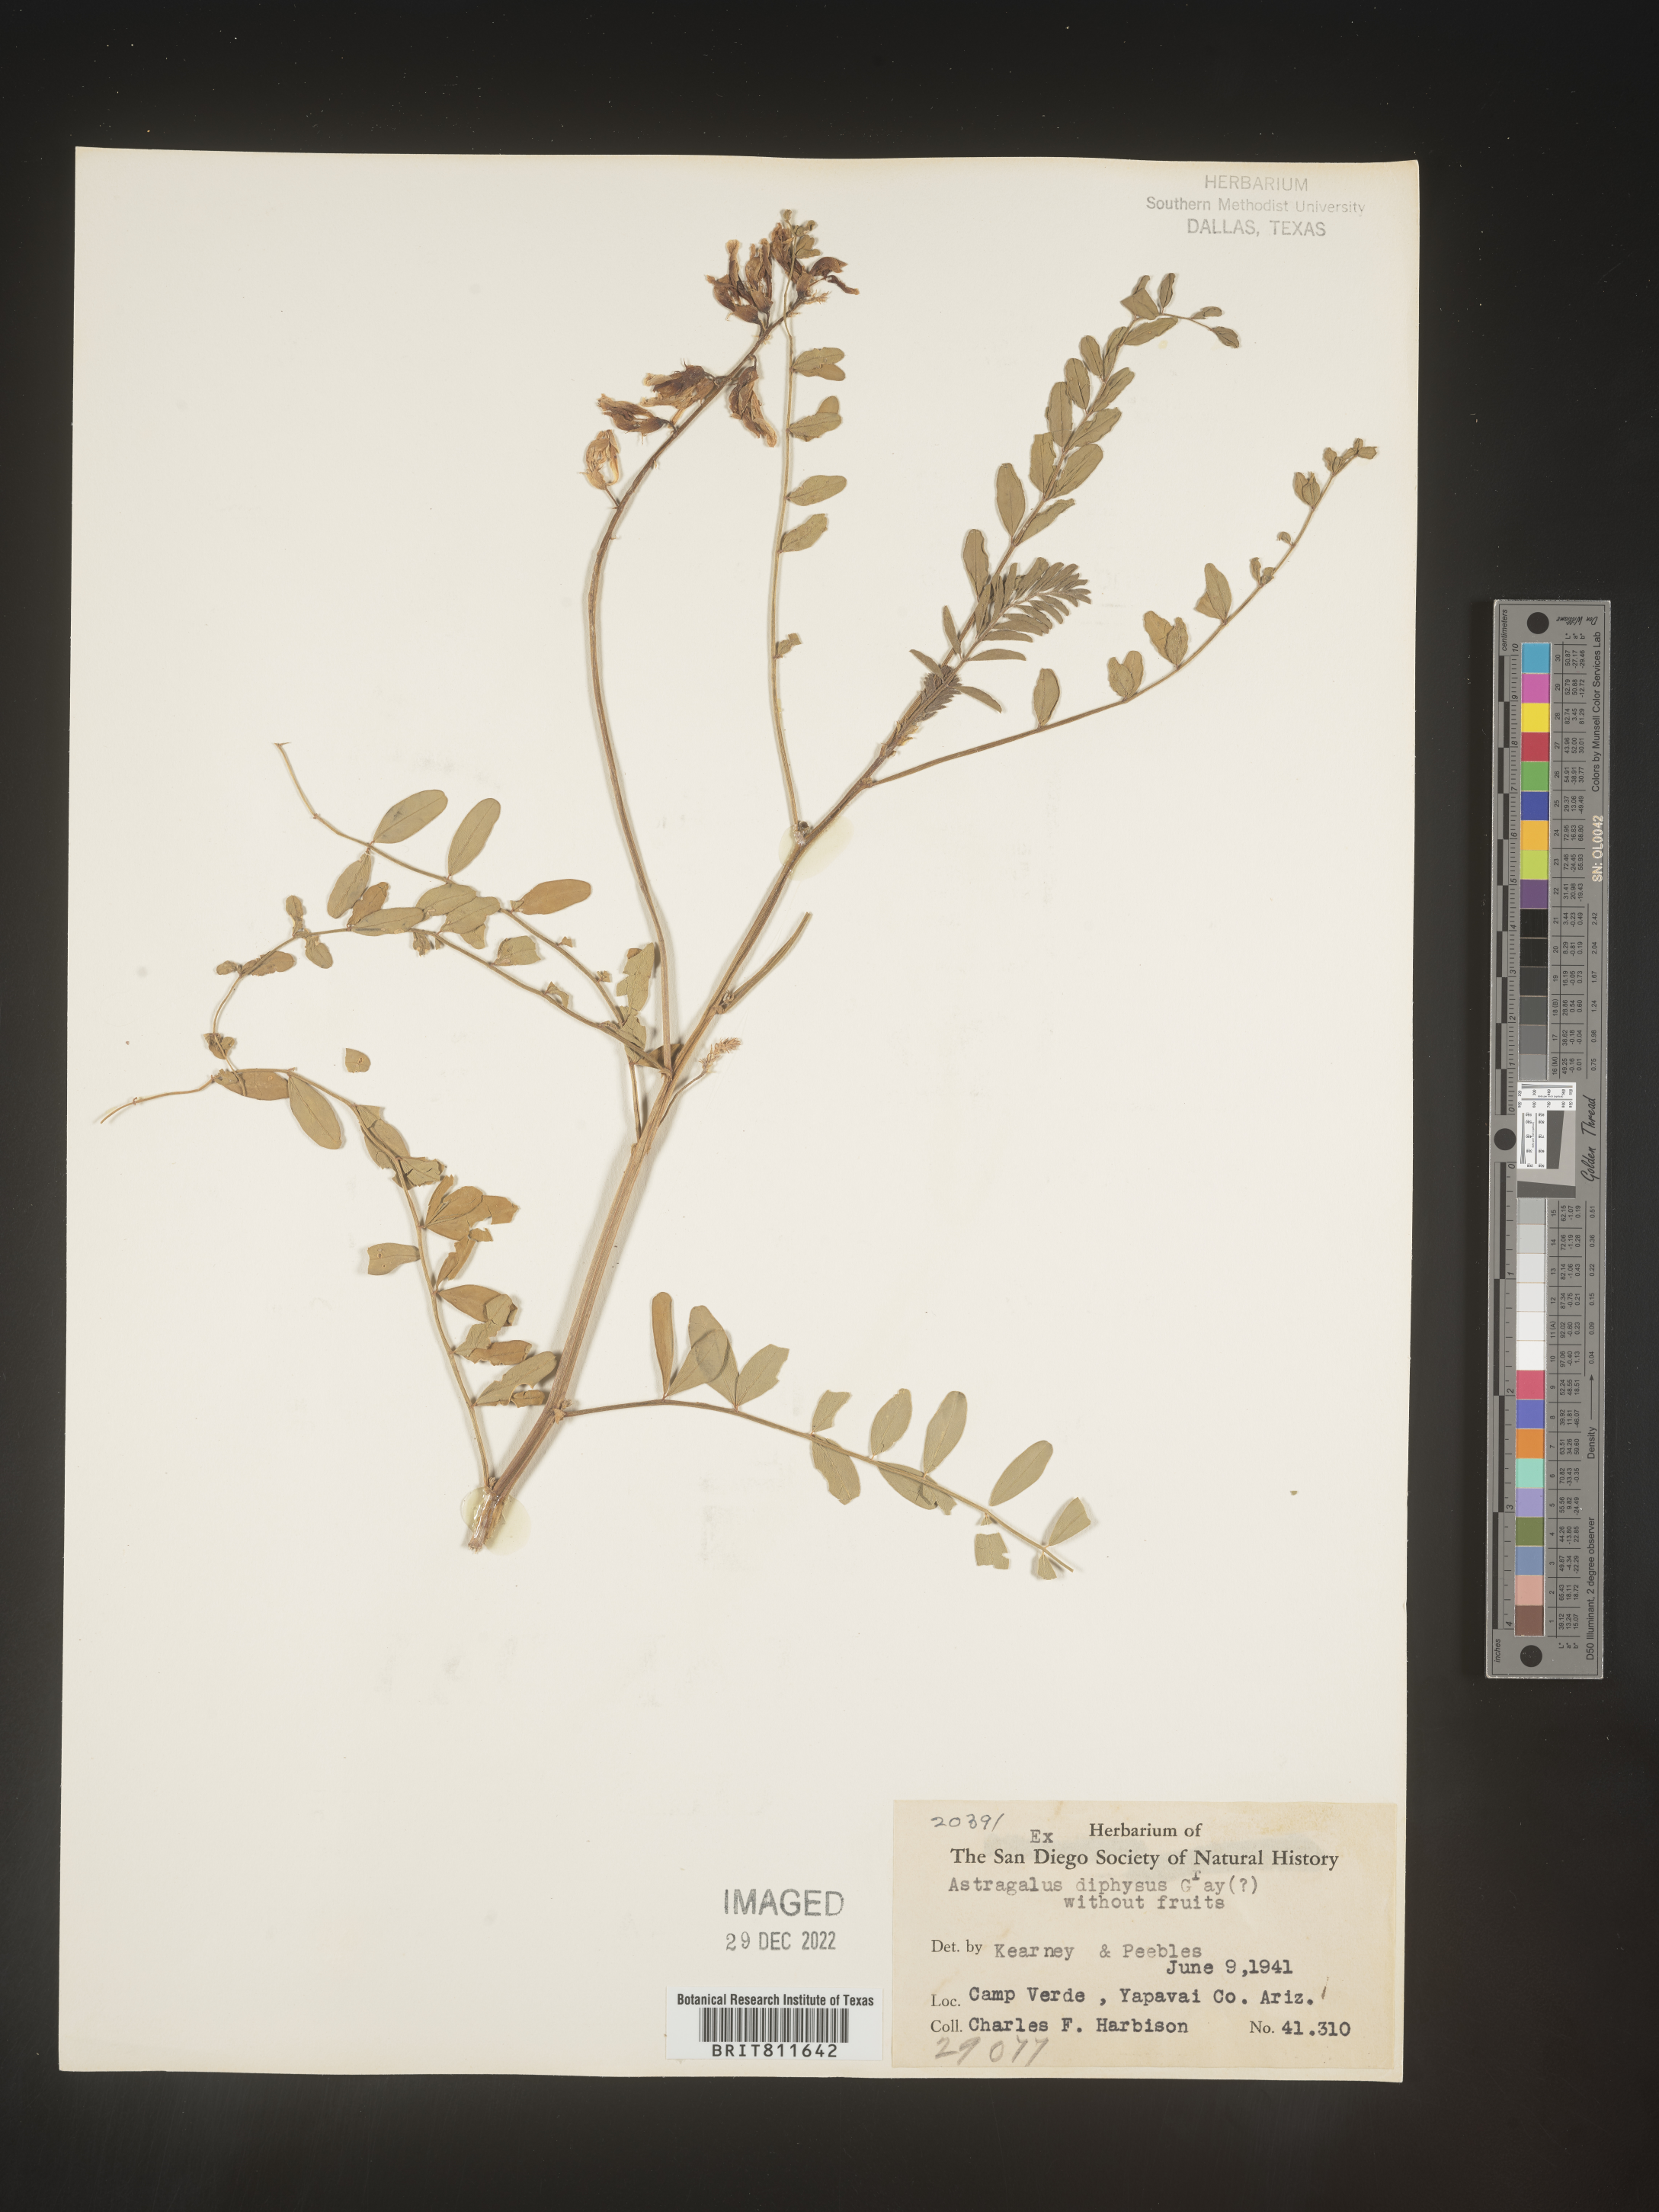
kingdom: Plantae
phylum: Tracheophyta
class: Magnoliopsida
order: Fabales
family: Fabaceae
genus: Astragalus
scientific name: Astragalus
